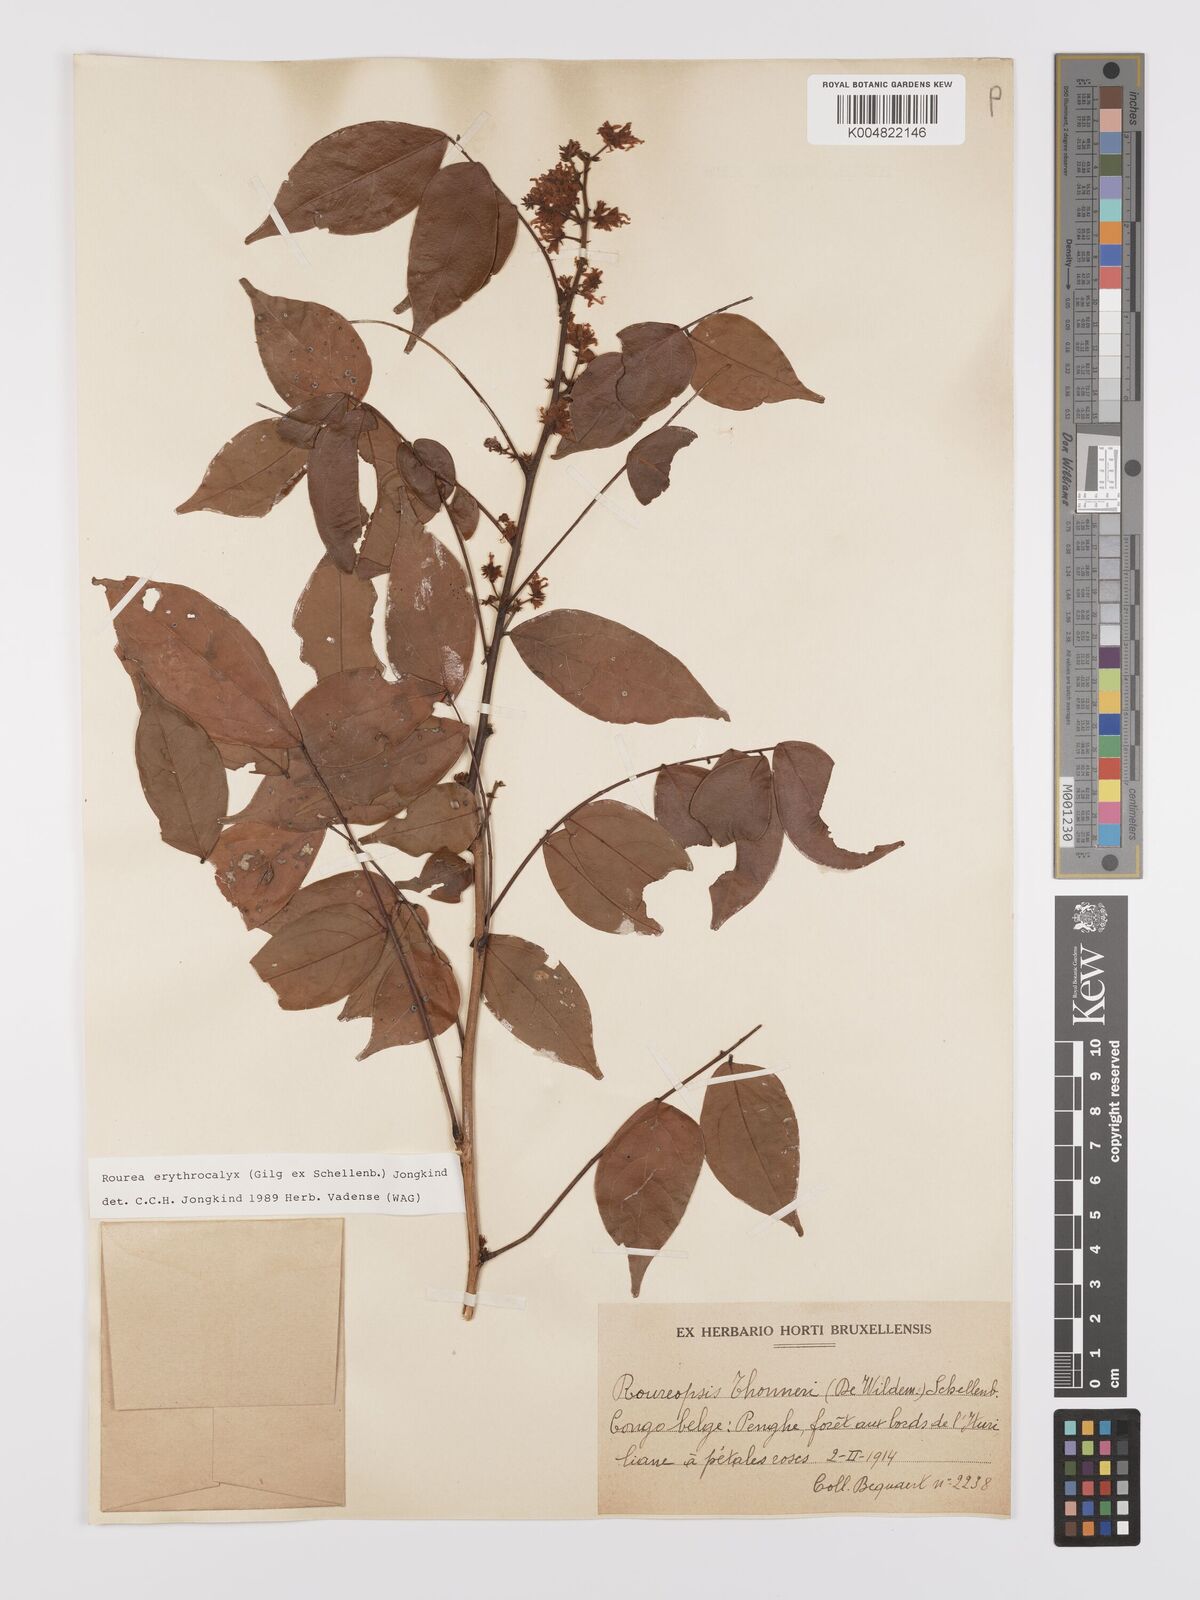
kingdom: Plantae
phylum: Tracheophyta
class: Magnoliopsida
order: Oxalidales
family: Connaraceae
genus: Rourea
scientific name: Rourea erythrocalyx
